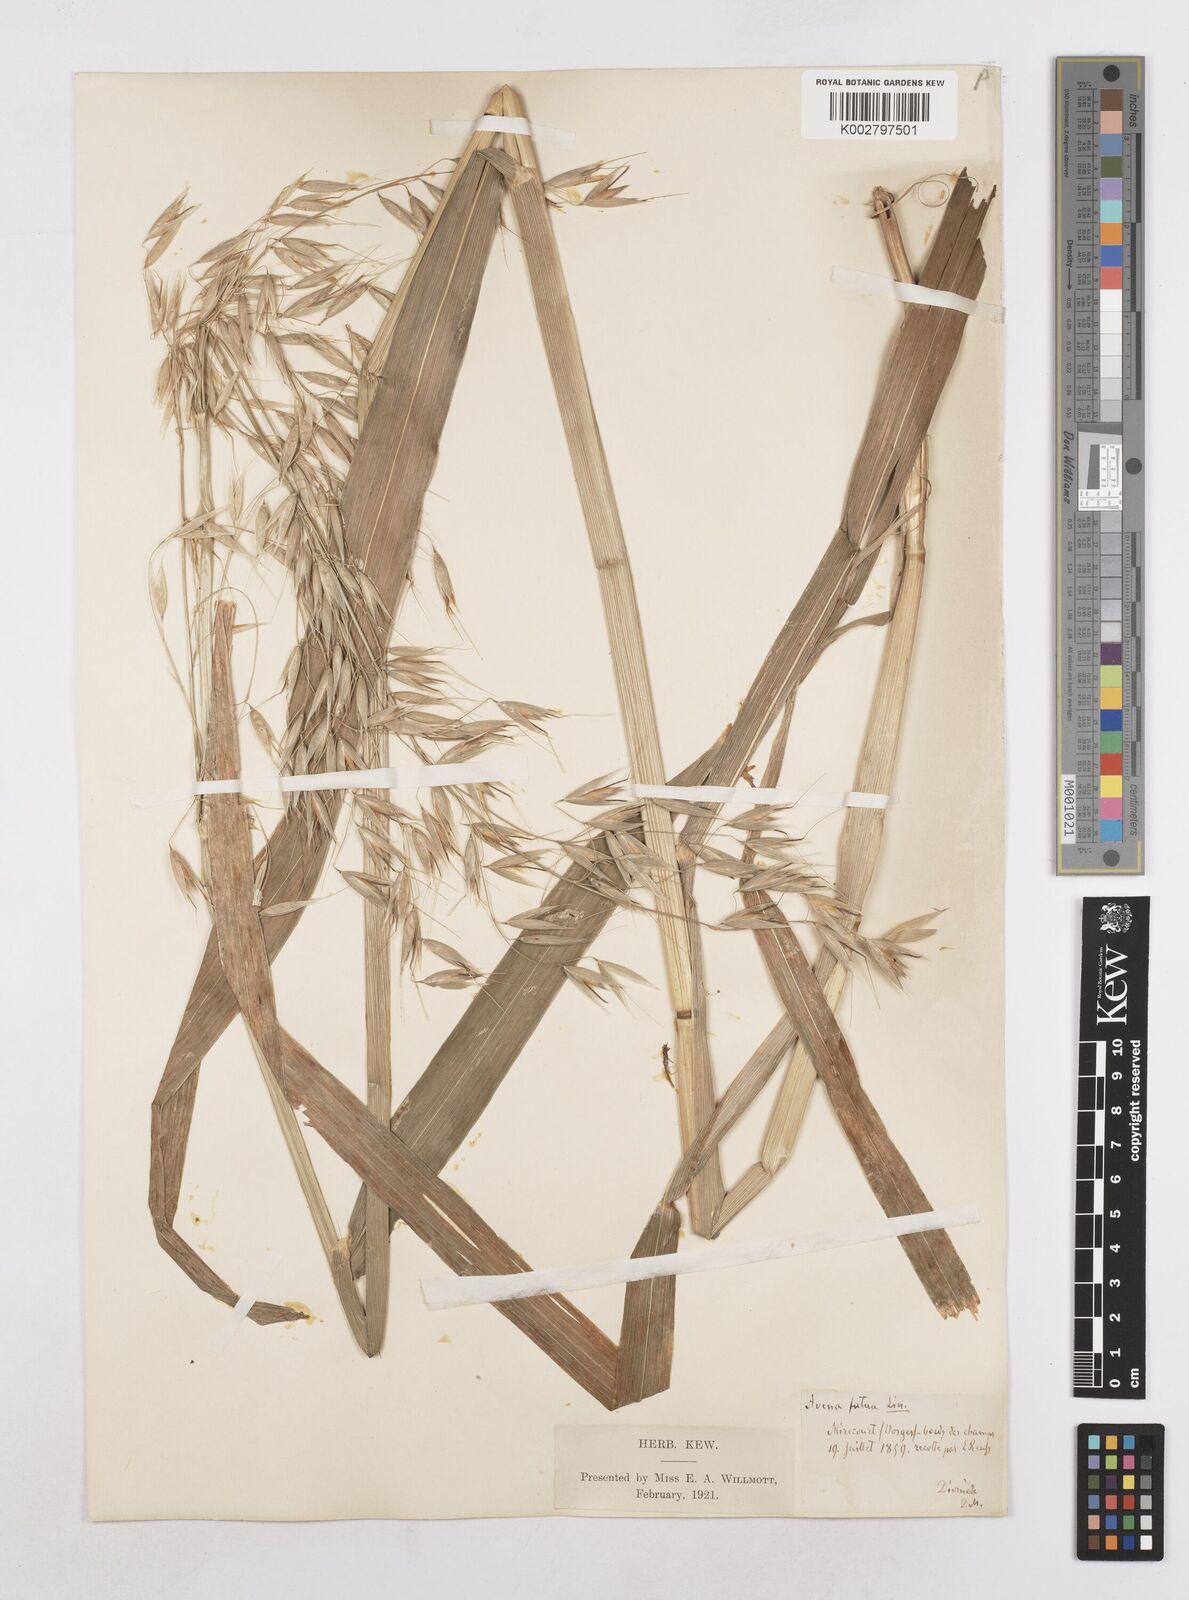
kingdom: Plantae
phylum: Tracheophyta
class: Liliopsida
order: Poales
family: Poaceae
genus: Avena
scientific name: Avena fatua
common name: Wild oat
